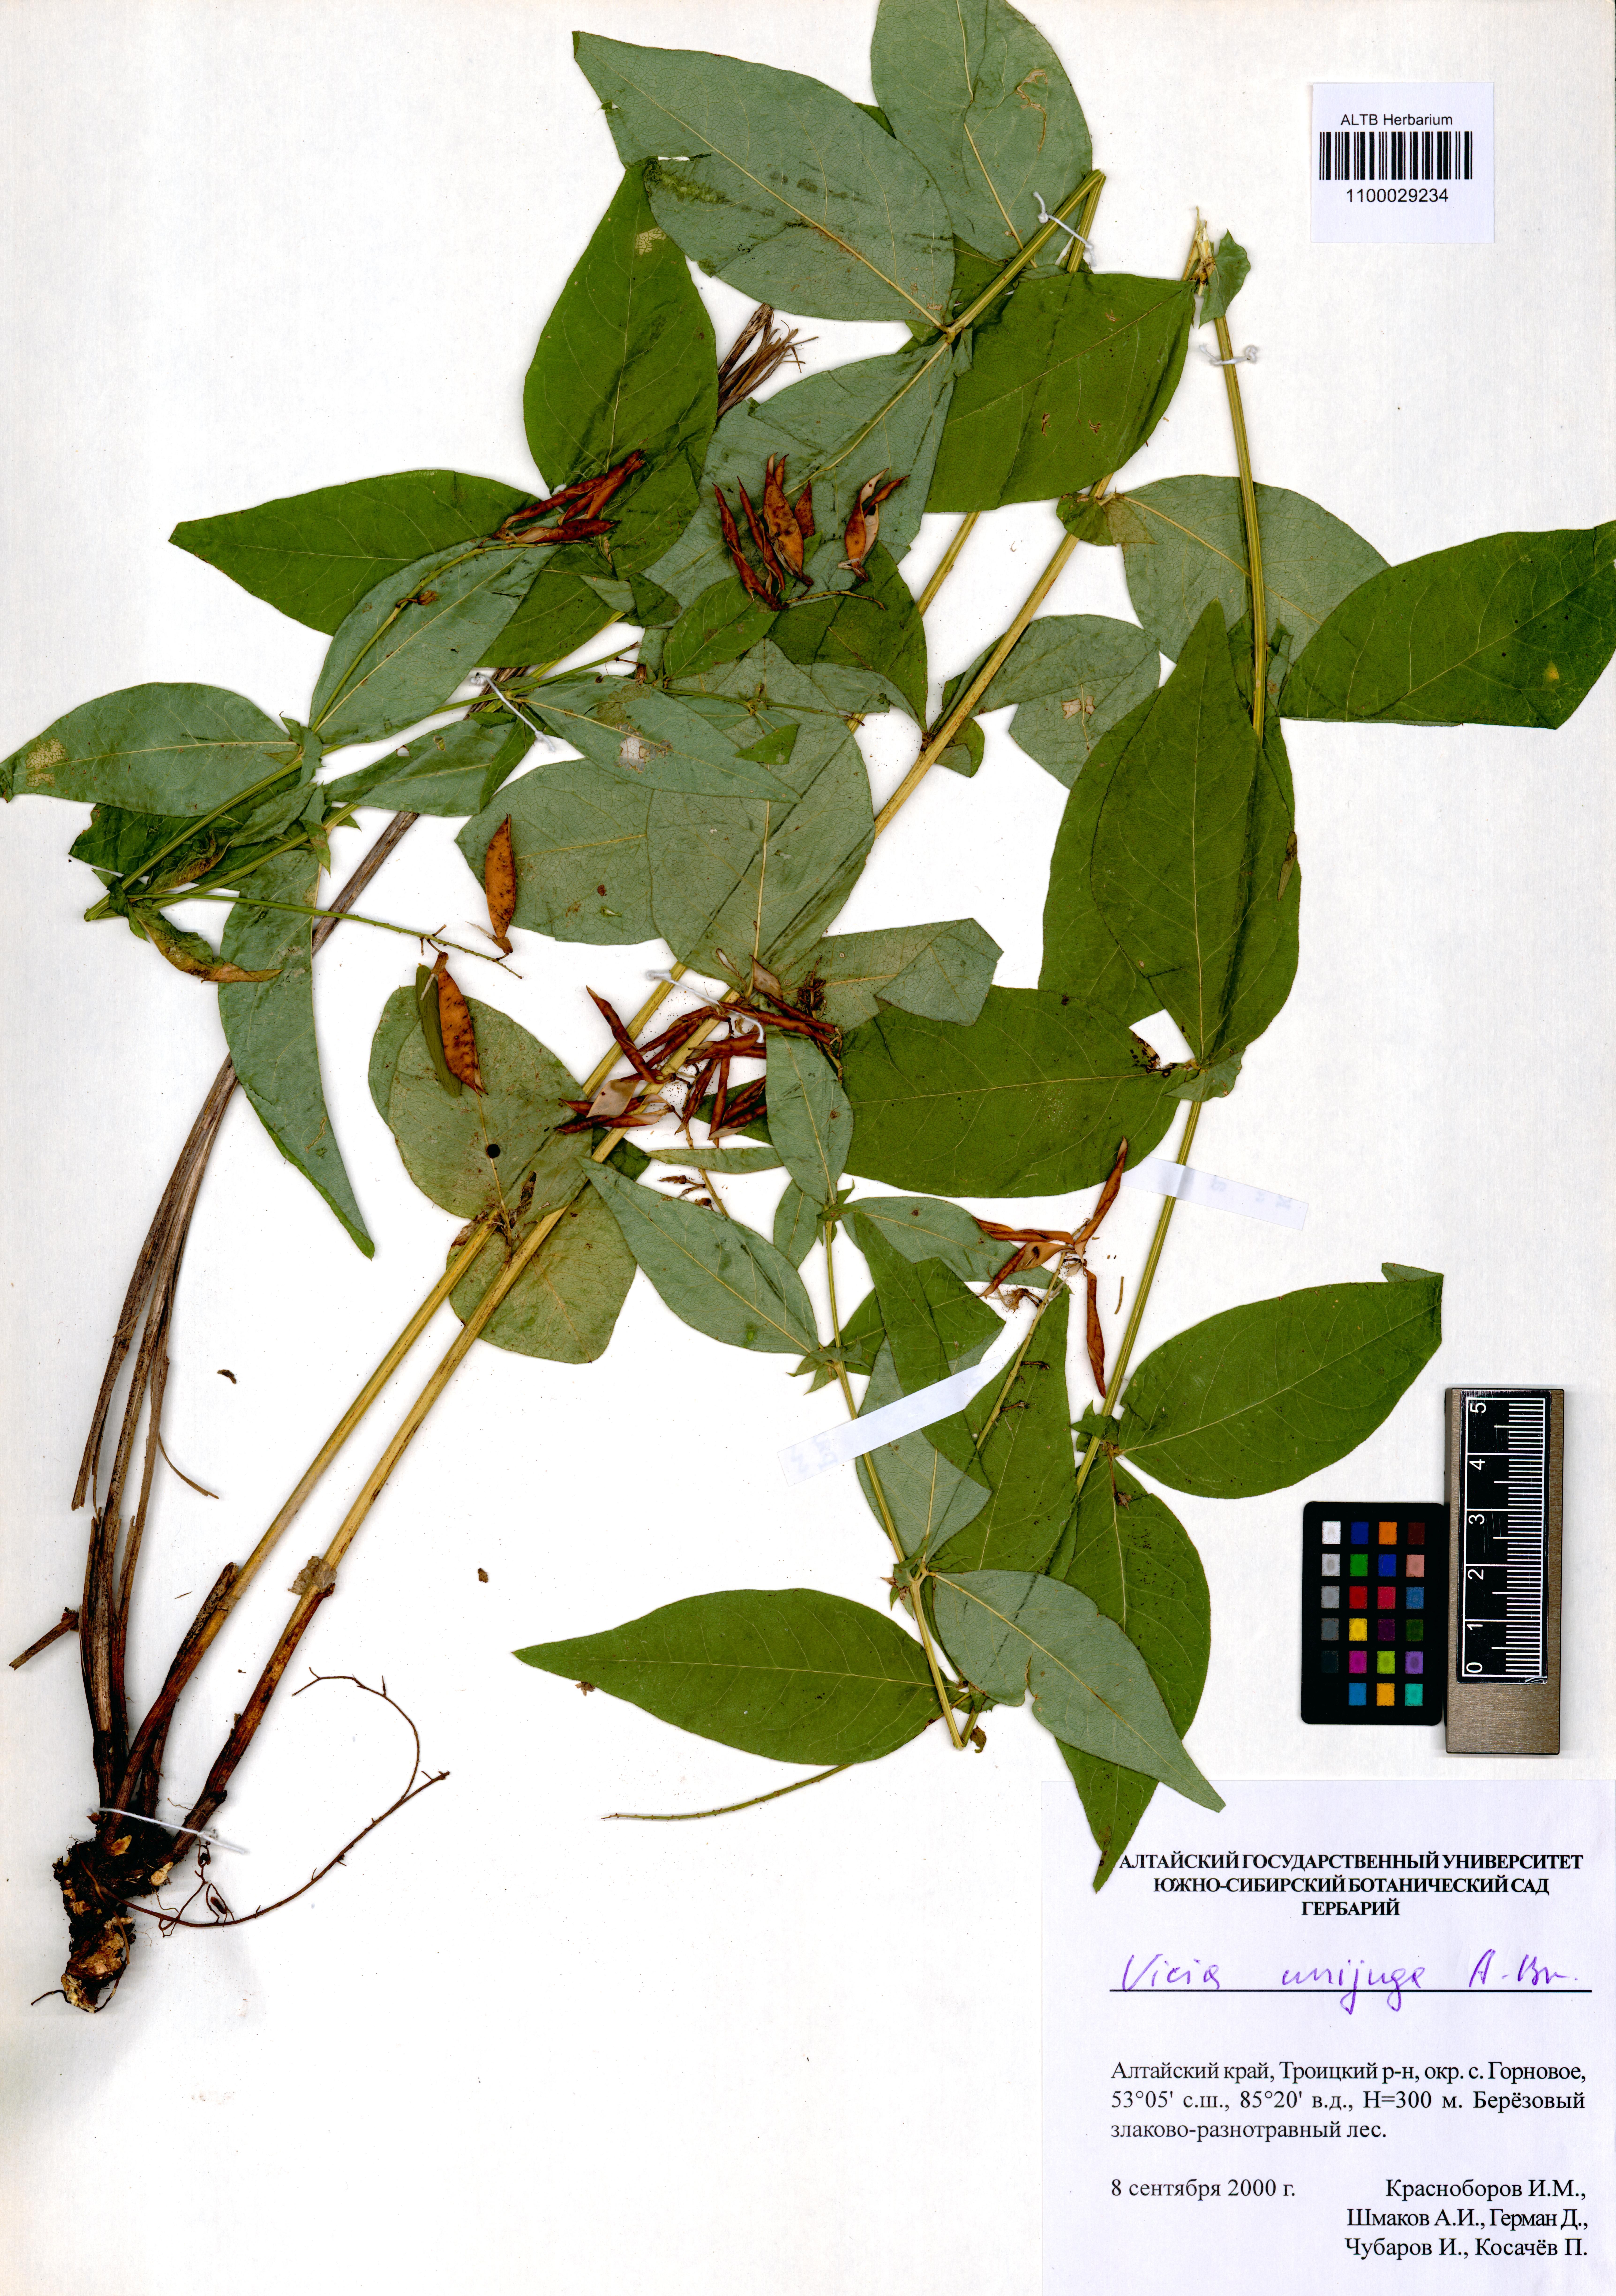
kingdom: Plantae
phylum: Tracheophyta
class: Magnoliopsida
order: Fabales
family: Fabaceae
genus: Vicia
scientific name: Vicia unijuga
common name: Two-leaf vetch
